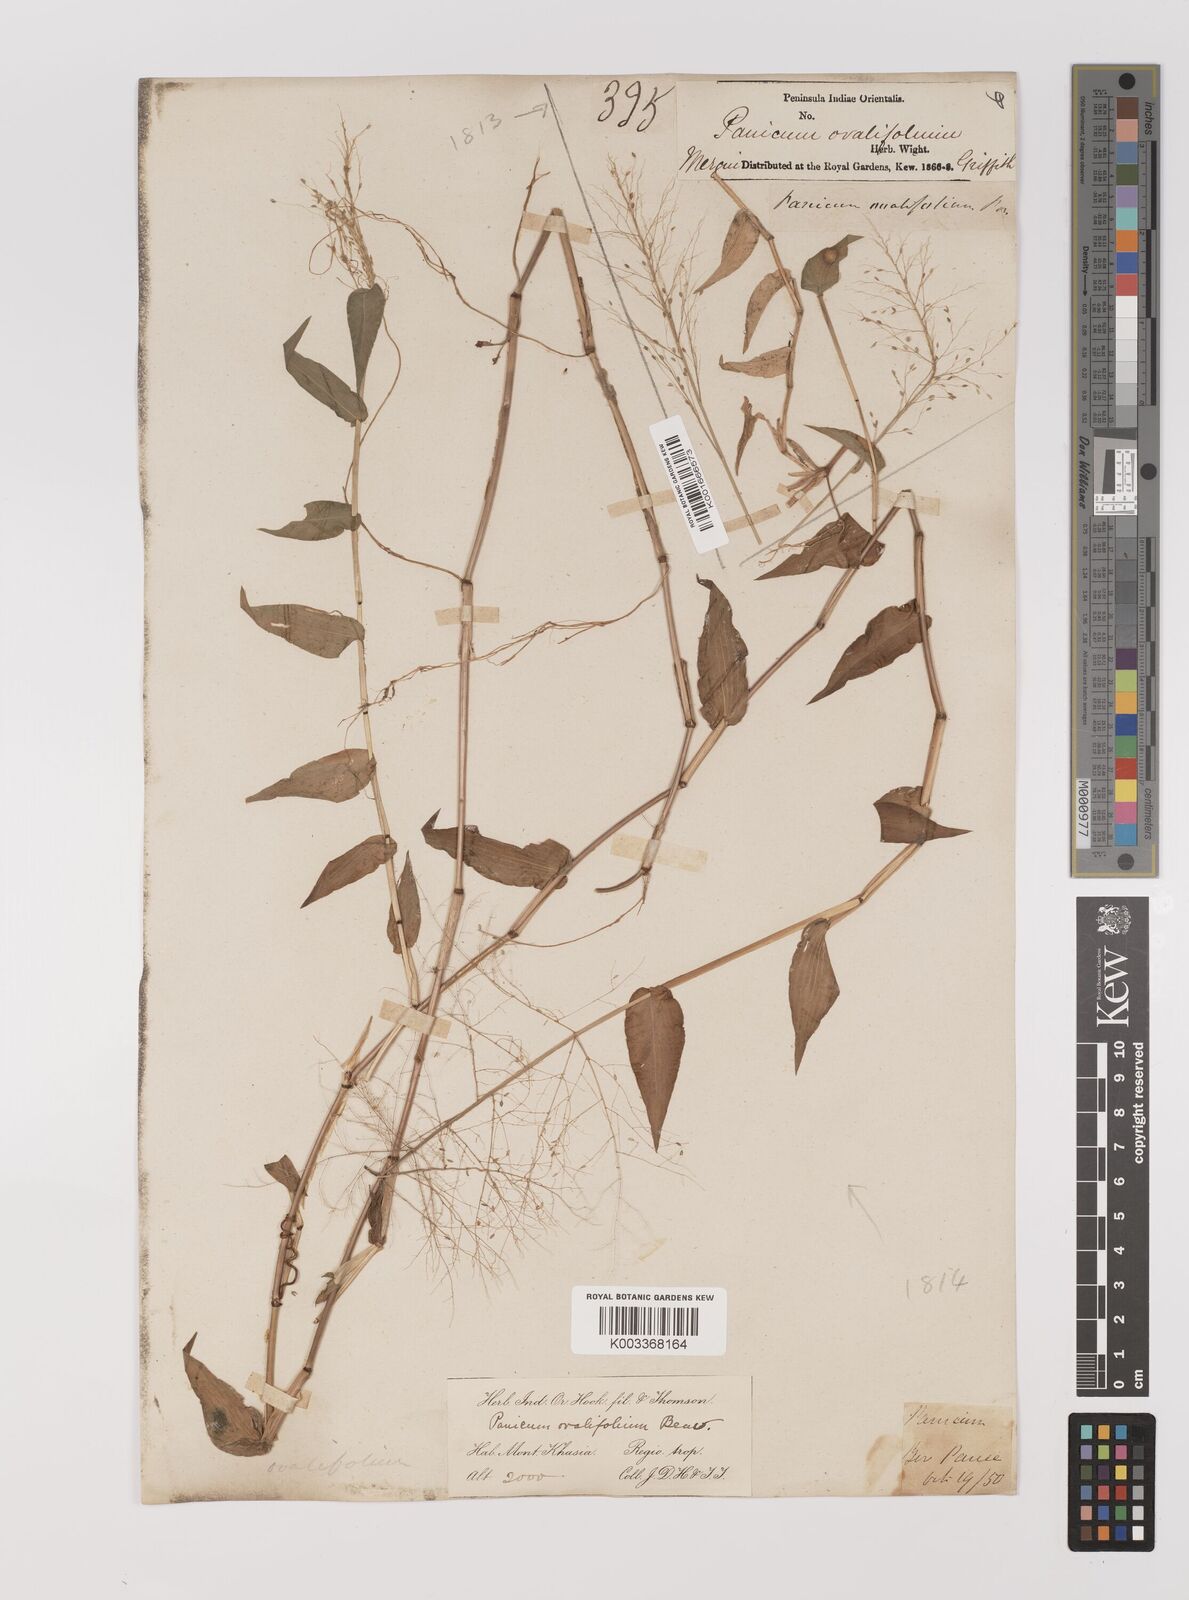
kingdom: Plantae
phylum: Tracheophyta
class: Liliopsida
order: Poales
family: Poaceae
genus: Panicum
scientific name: Panicum brevifolium
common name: Shortleaf panic grass
